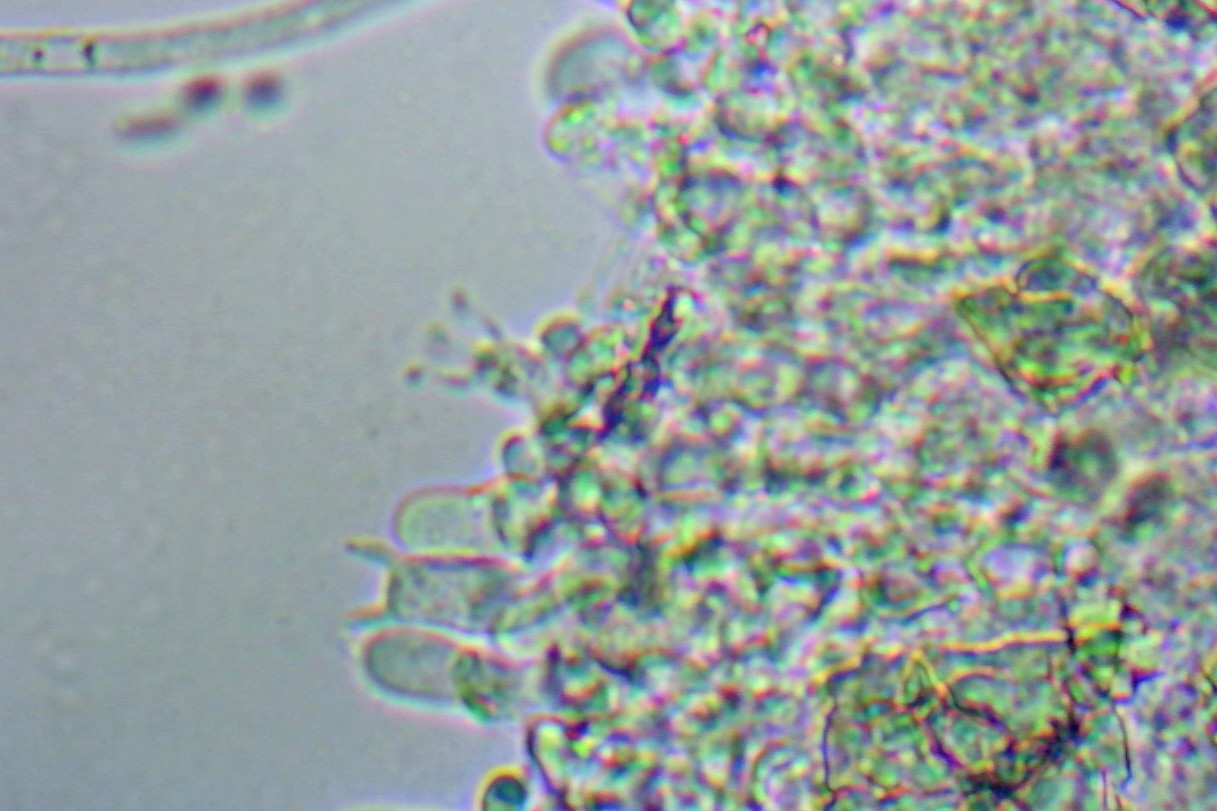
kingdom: Fungi
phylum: Basidiomycota
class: Agaricomycetes
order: Agaricales
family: Clavariaceae
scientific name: Clavariaceae
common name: køllesvampfamilien
